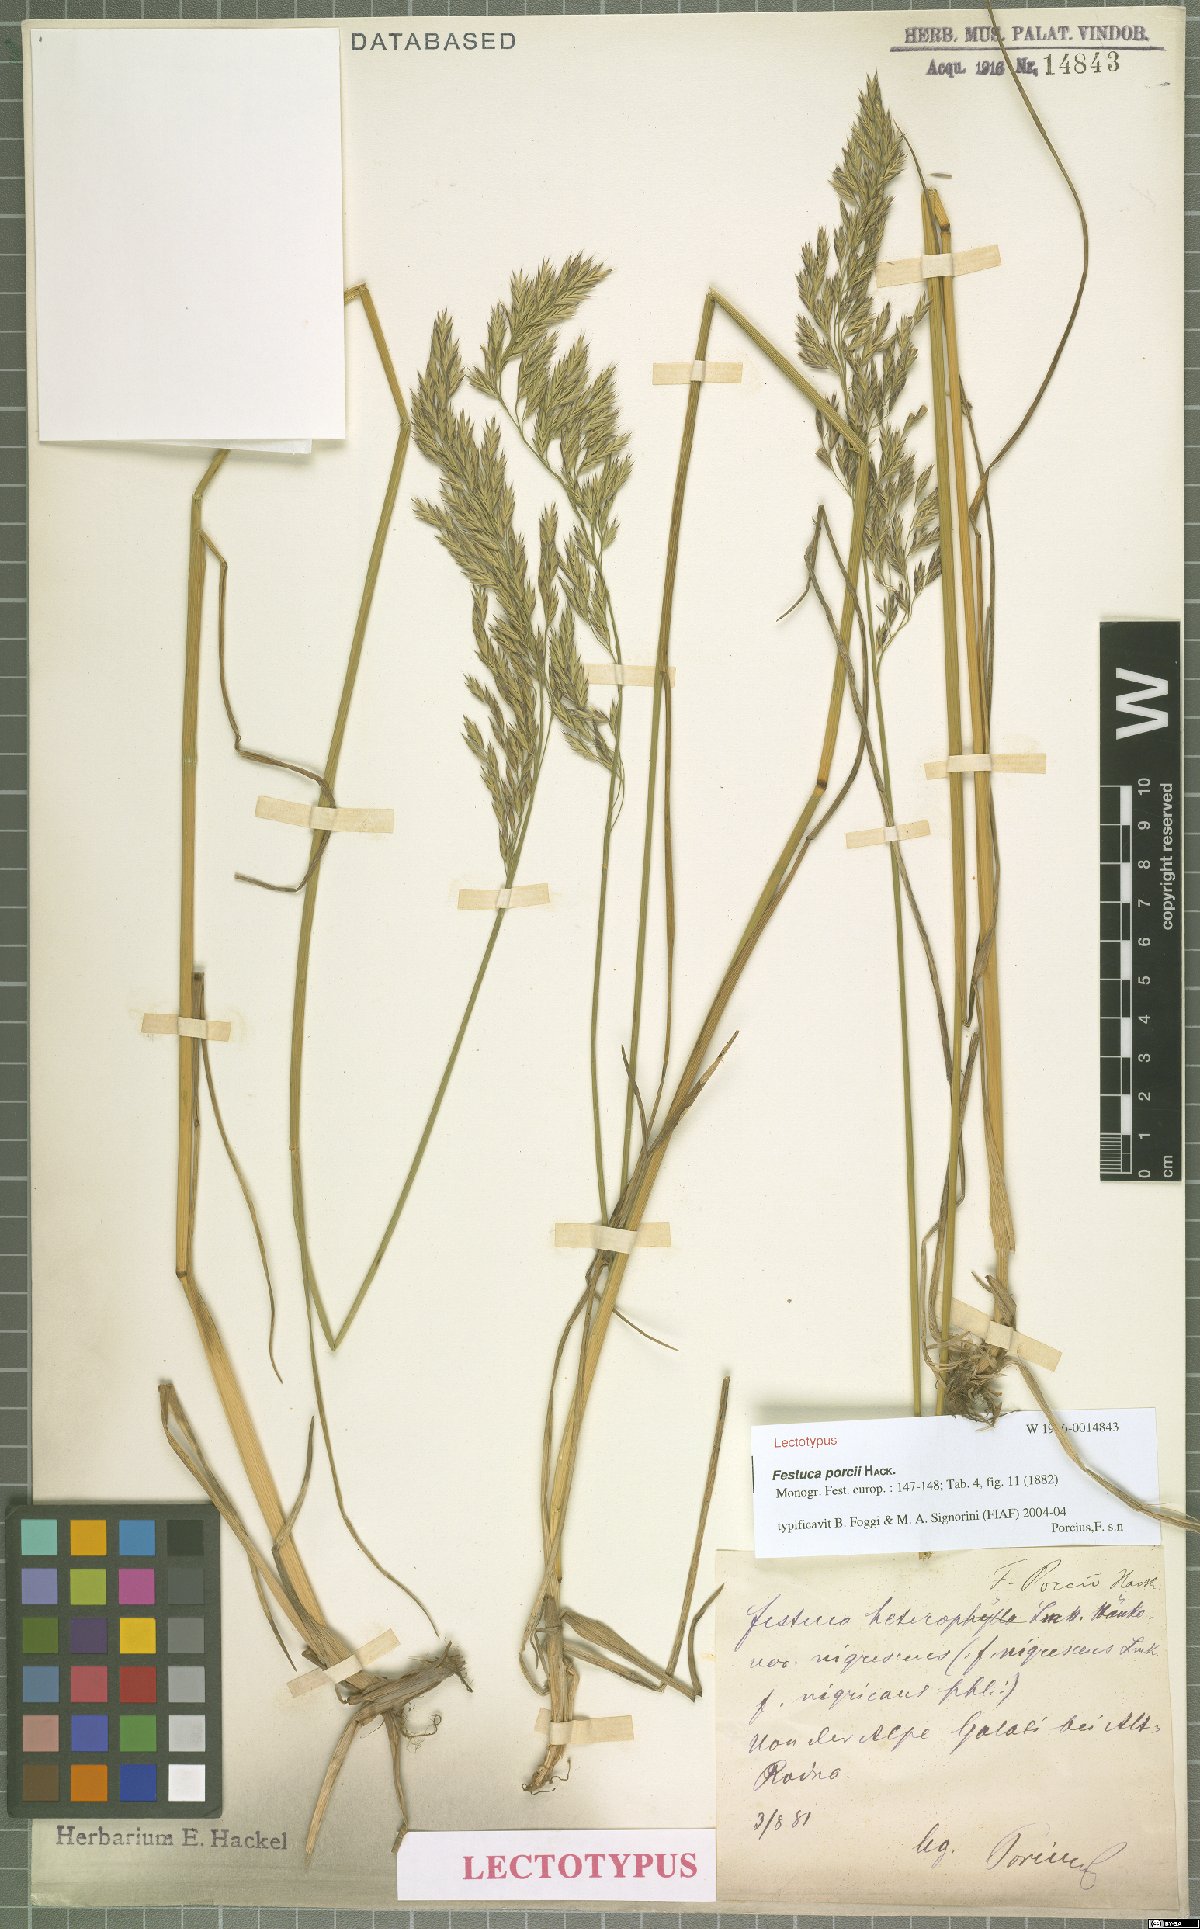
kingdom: Plantae
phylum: Tracheophyta
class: Liliopsida
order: Poales
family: Poaceae
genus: Festuca
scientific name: Festuca porcii
